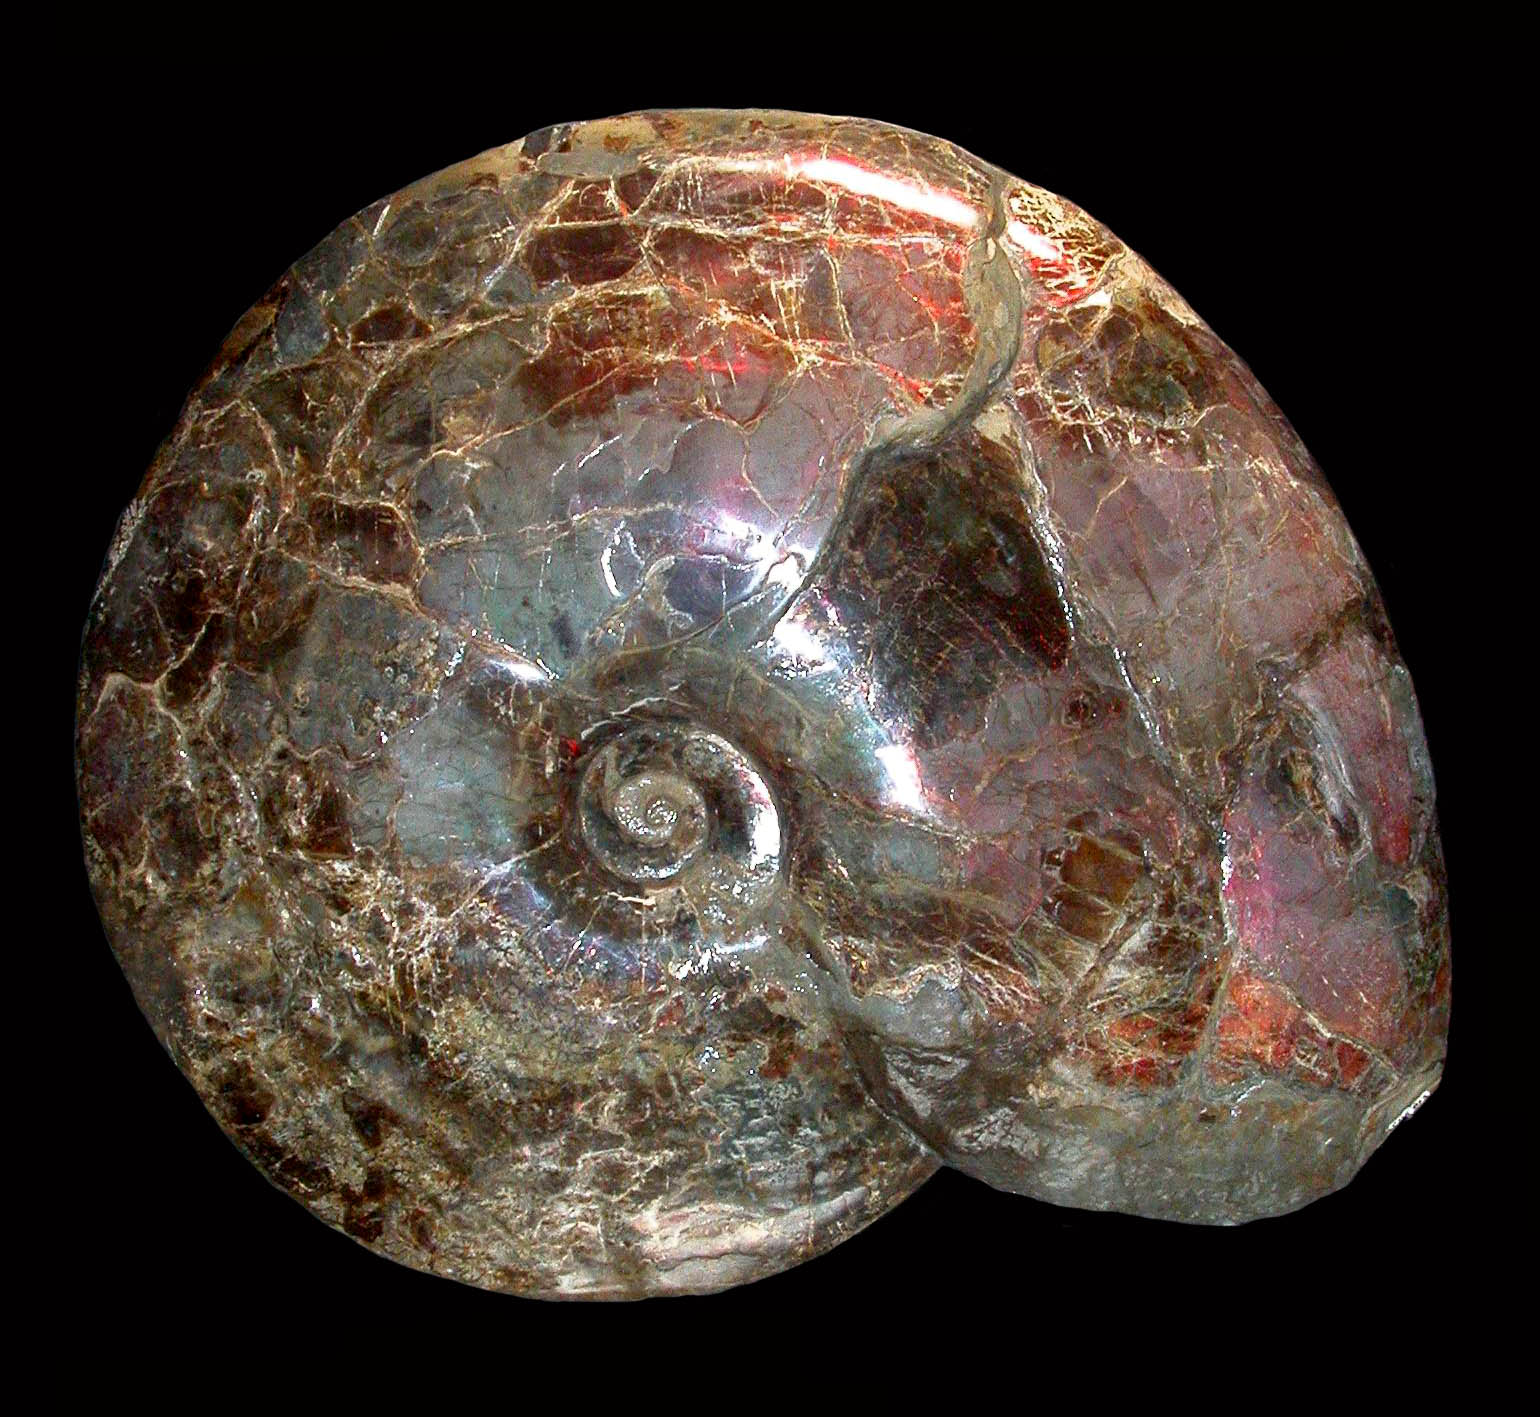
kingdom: Animalia
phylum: Mollusca
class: Cephalopoda
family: Placenticeratidae
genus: Placenticeras
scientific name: Placenticeras
